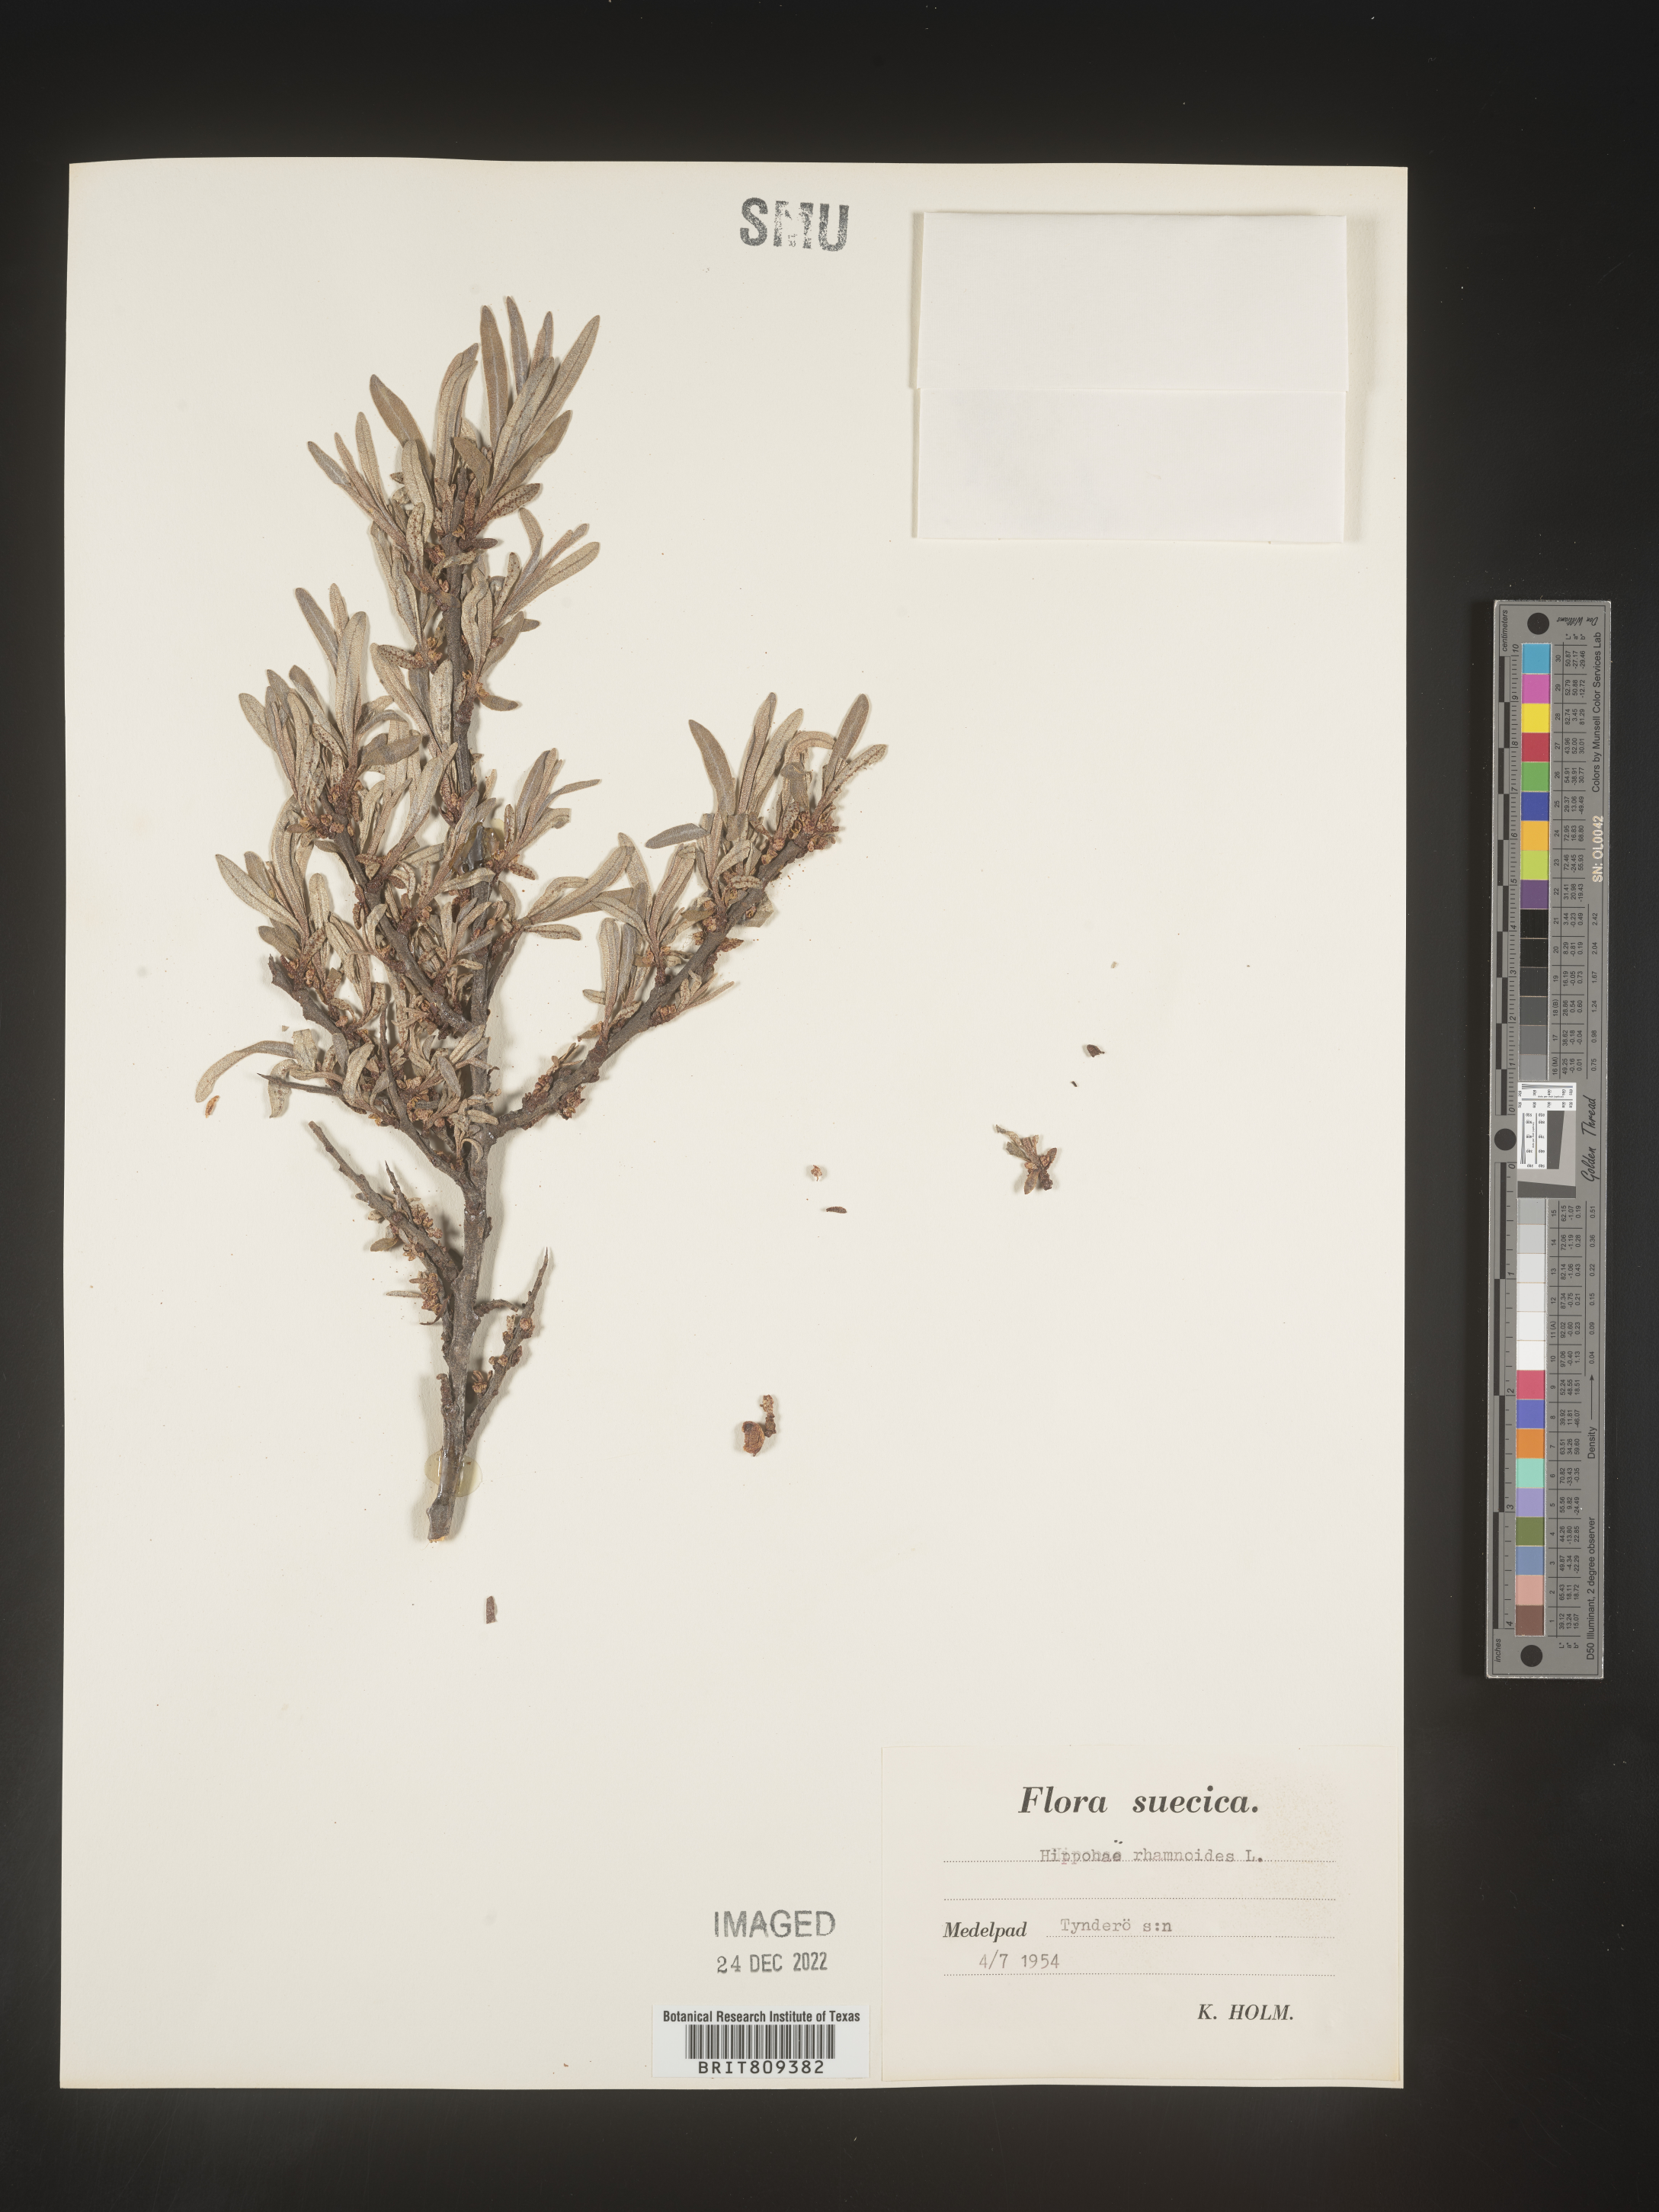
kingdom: Plantae
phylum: Tracheophyta
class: Magnoliopsida
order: Rosales
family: Elaeagnaceae
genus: Hippophae
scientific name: Hippophae
